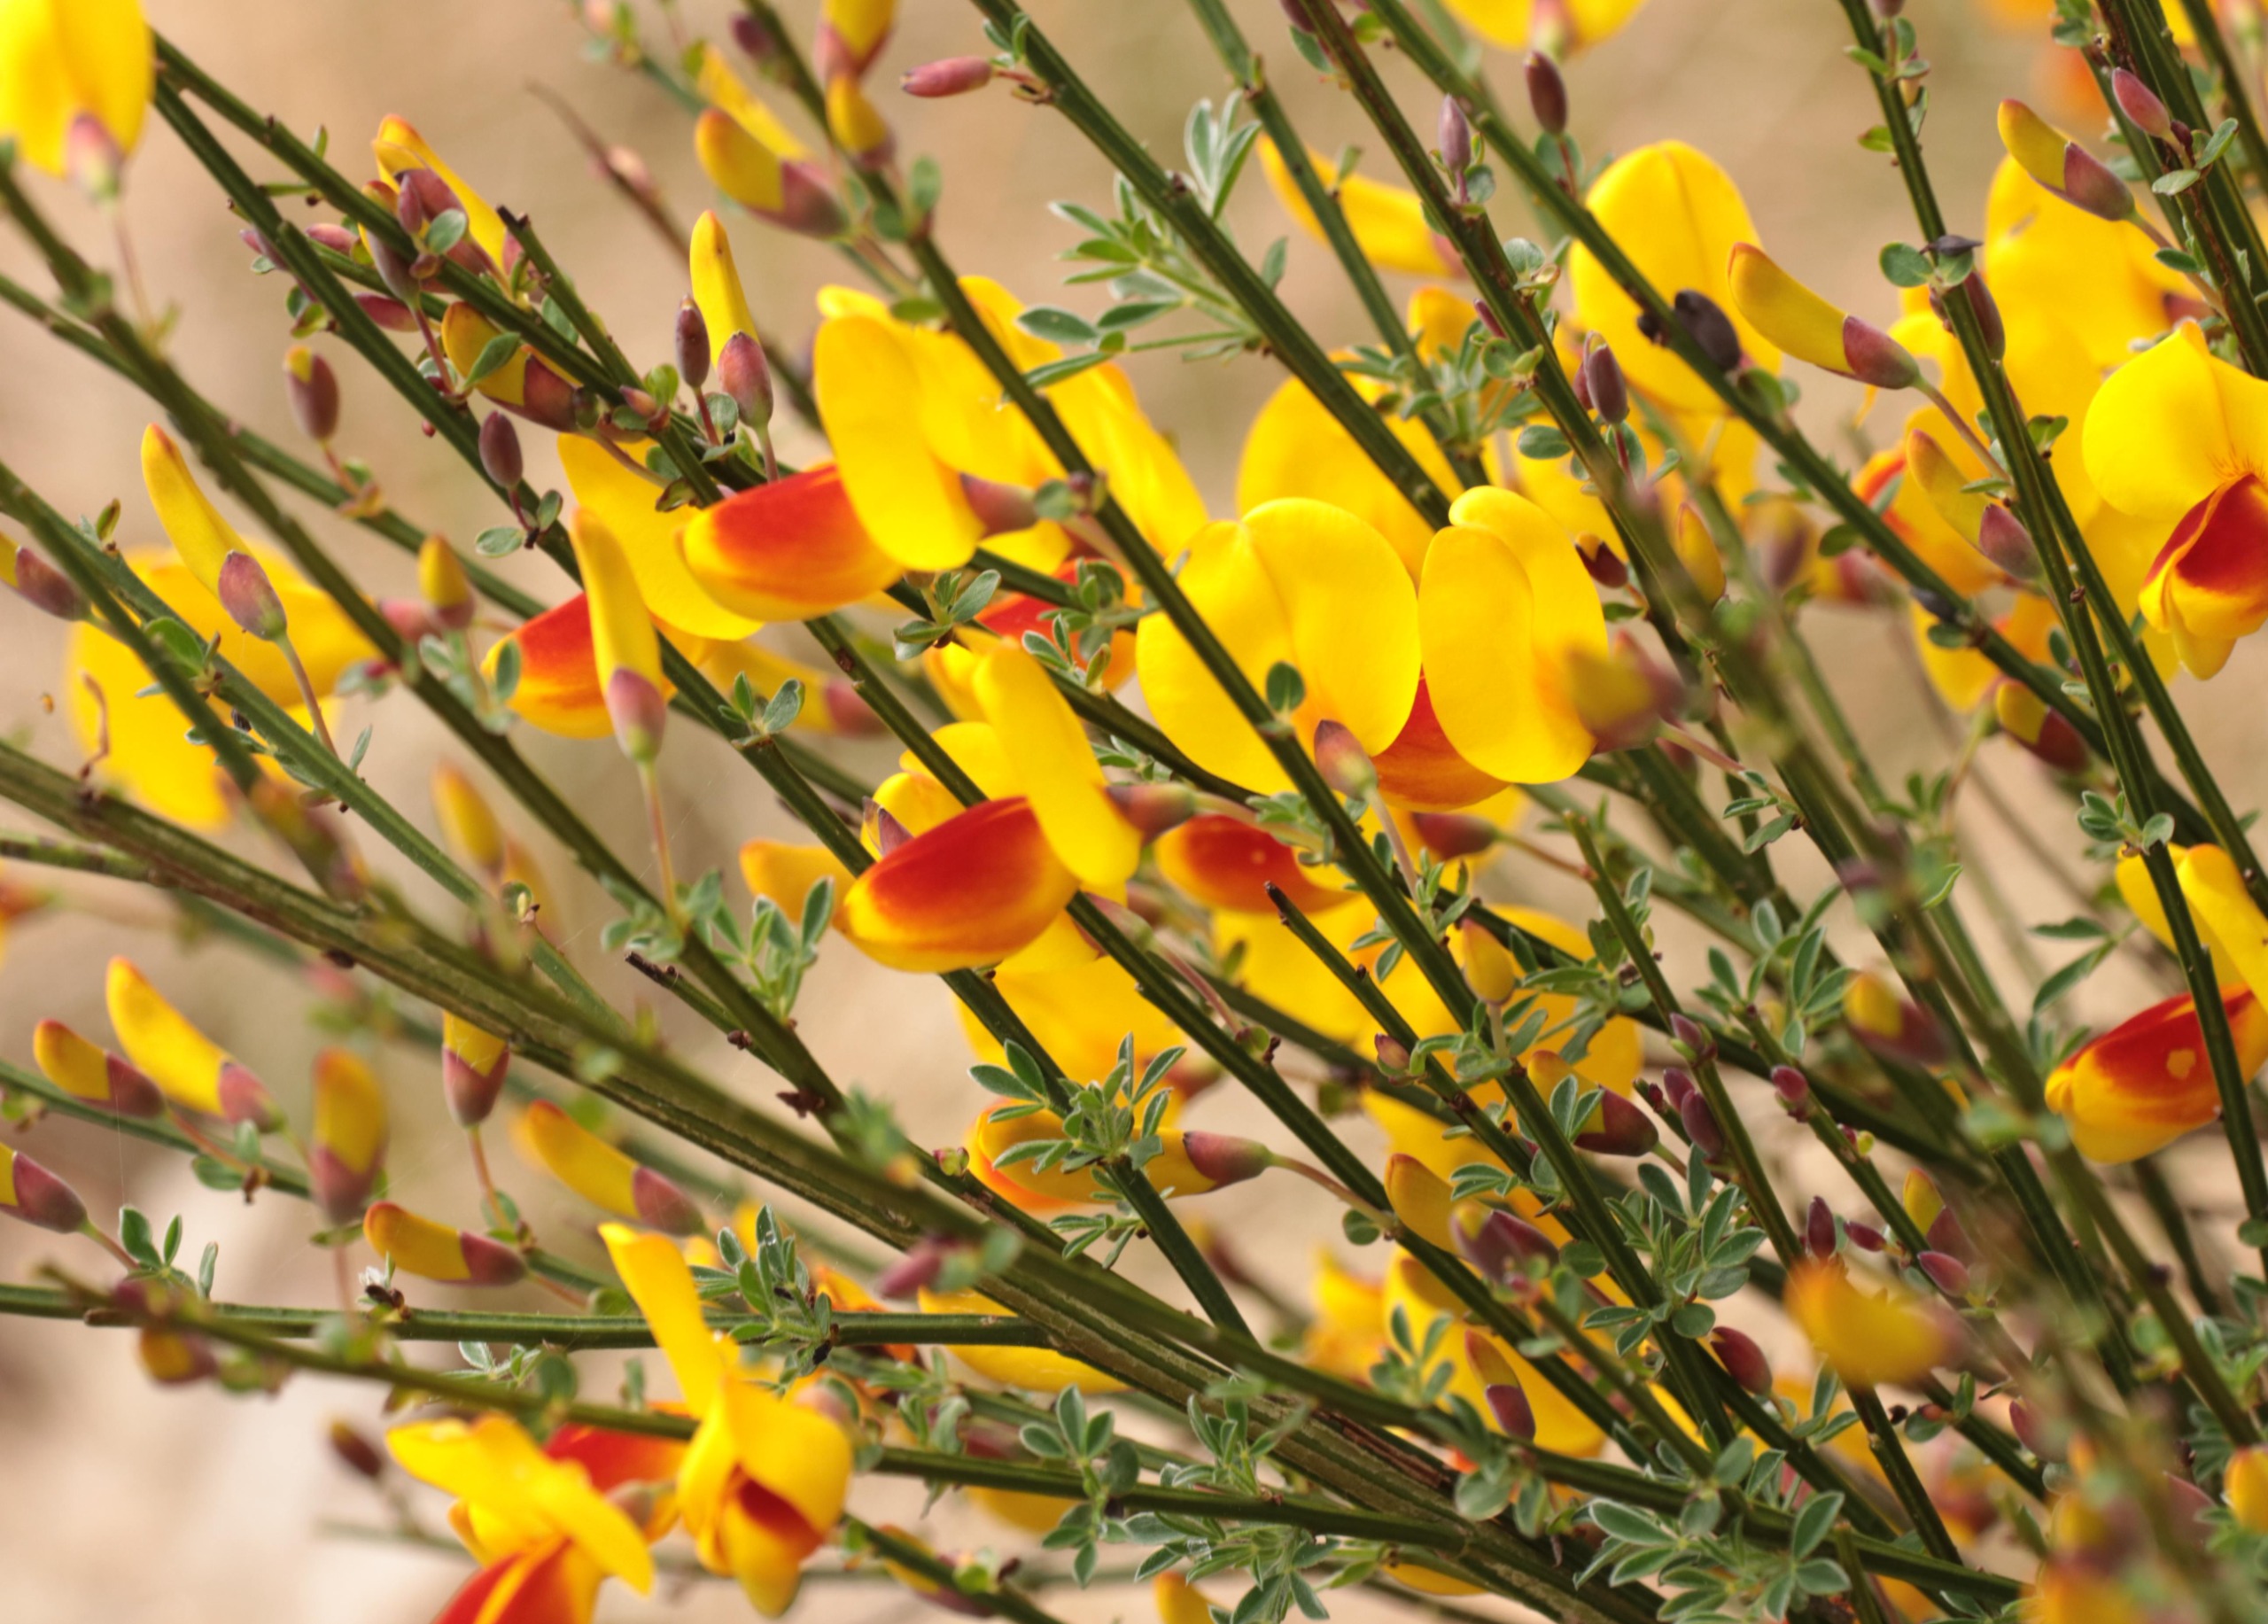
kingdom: Plantae
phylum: Tracheophyta
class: Magnoliopsida
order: Fabales
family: Fabaceae
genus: Cytisus
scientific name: Cytisus scoparius
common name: Almindelig gyvel
